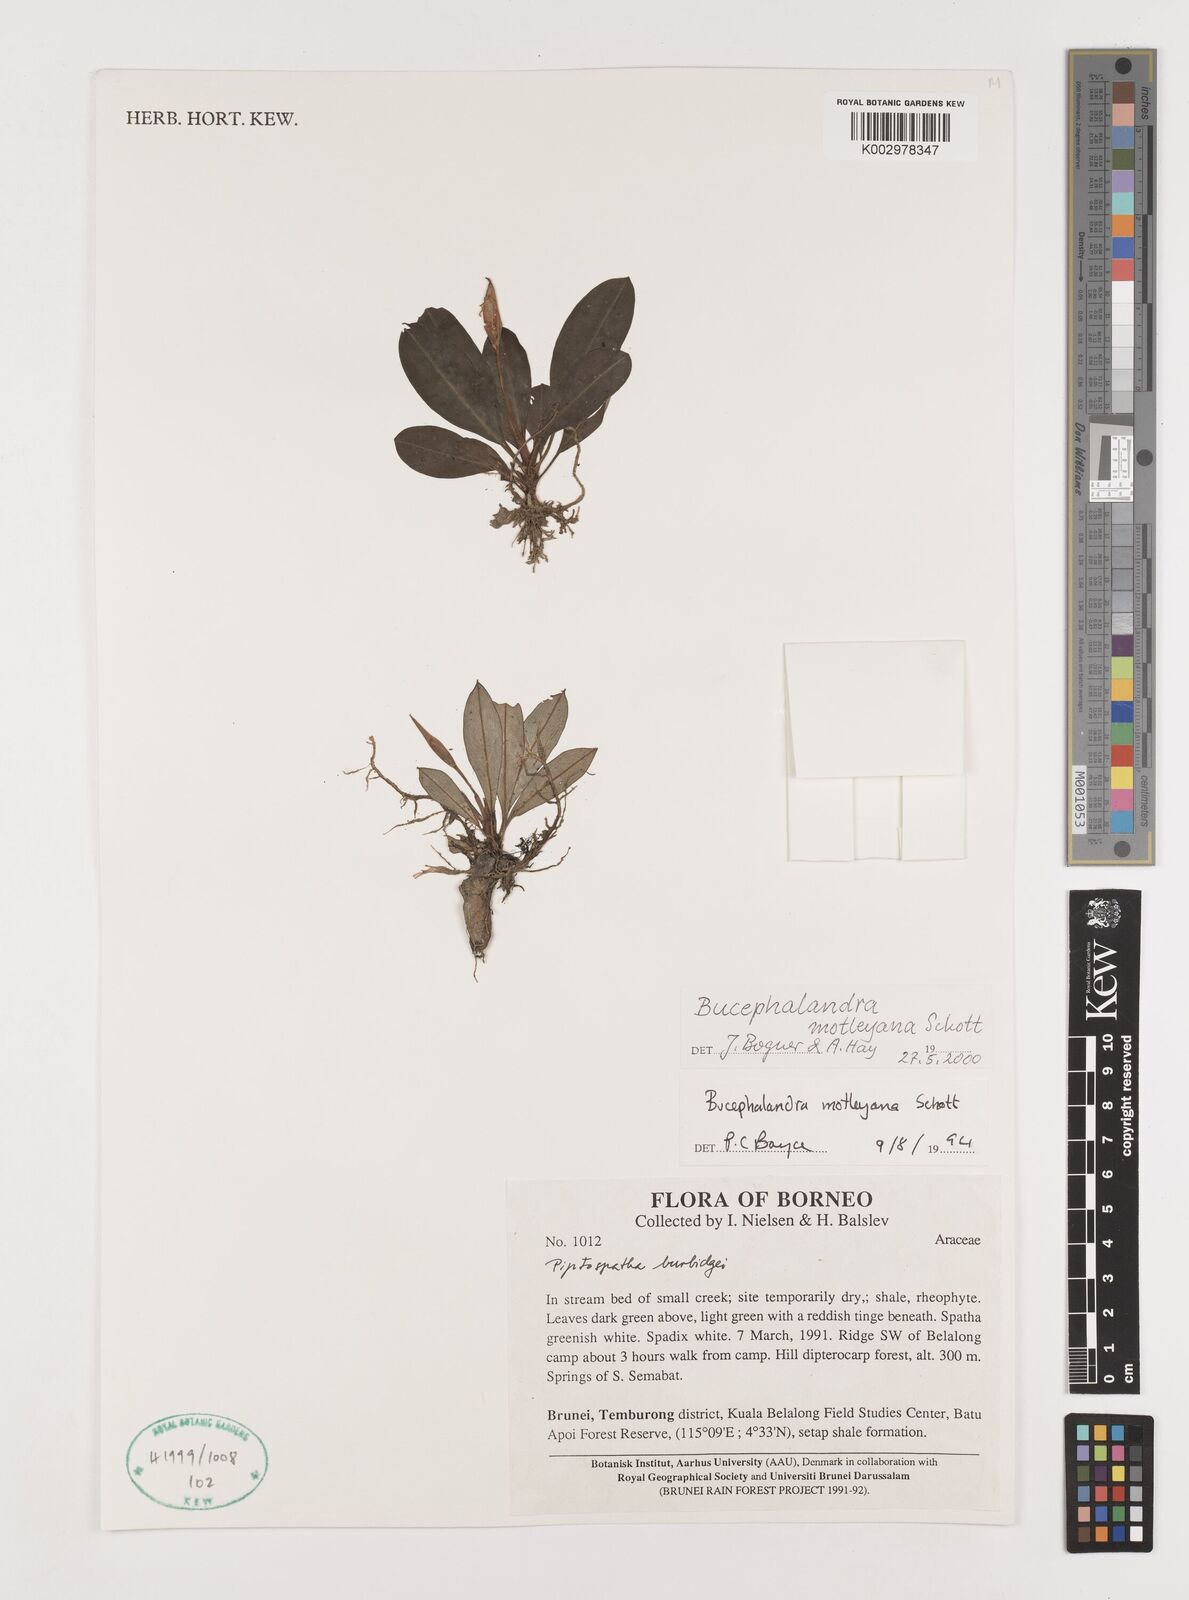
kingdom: Plantae
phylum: Tracheophyta
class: Liliopsida
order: Alismatales
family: Araceae
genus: Bucephalandra
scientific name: Bucephalandra motleyana
